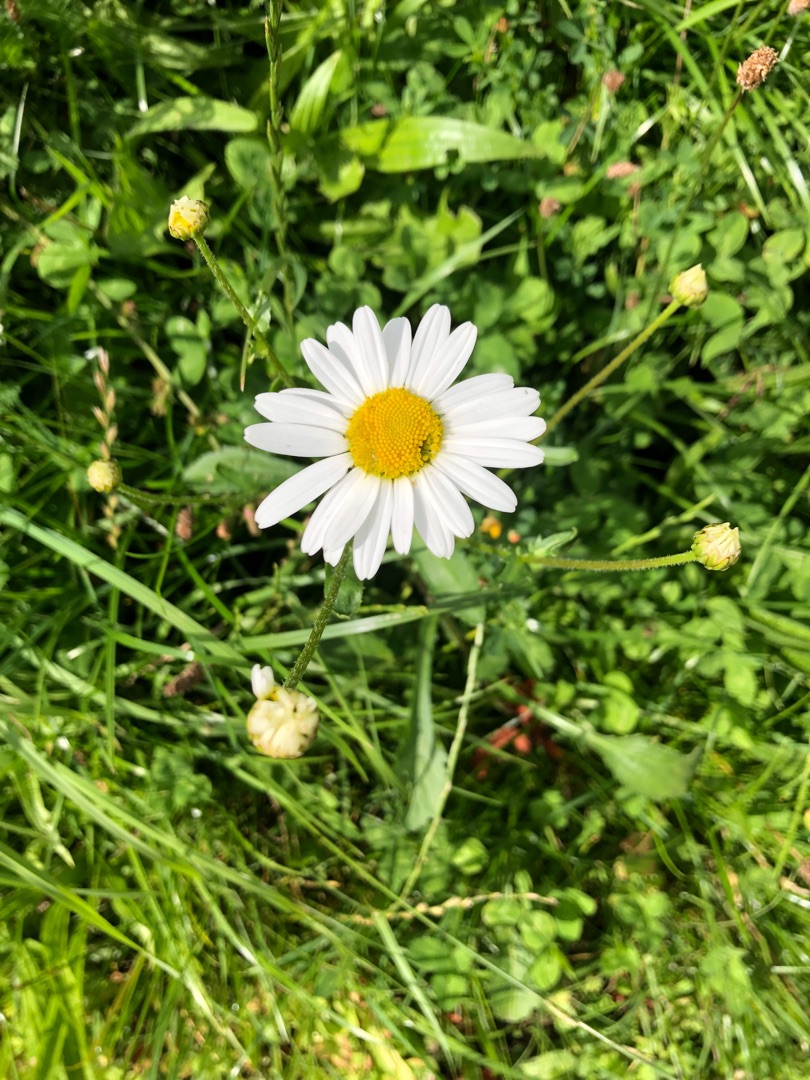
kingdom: Plantae
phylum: Tracheophyta
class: Magnoliopsida
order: Asterales
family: Asteraceae
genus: Leucanthemum
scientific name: Leucanthemum vulgare
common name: Hvid okseøje
